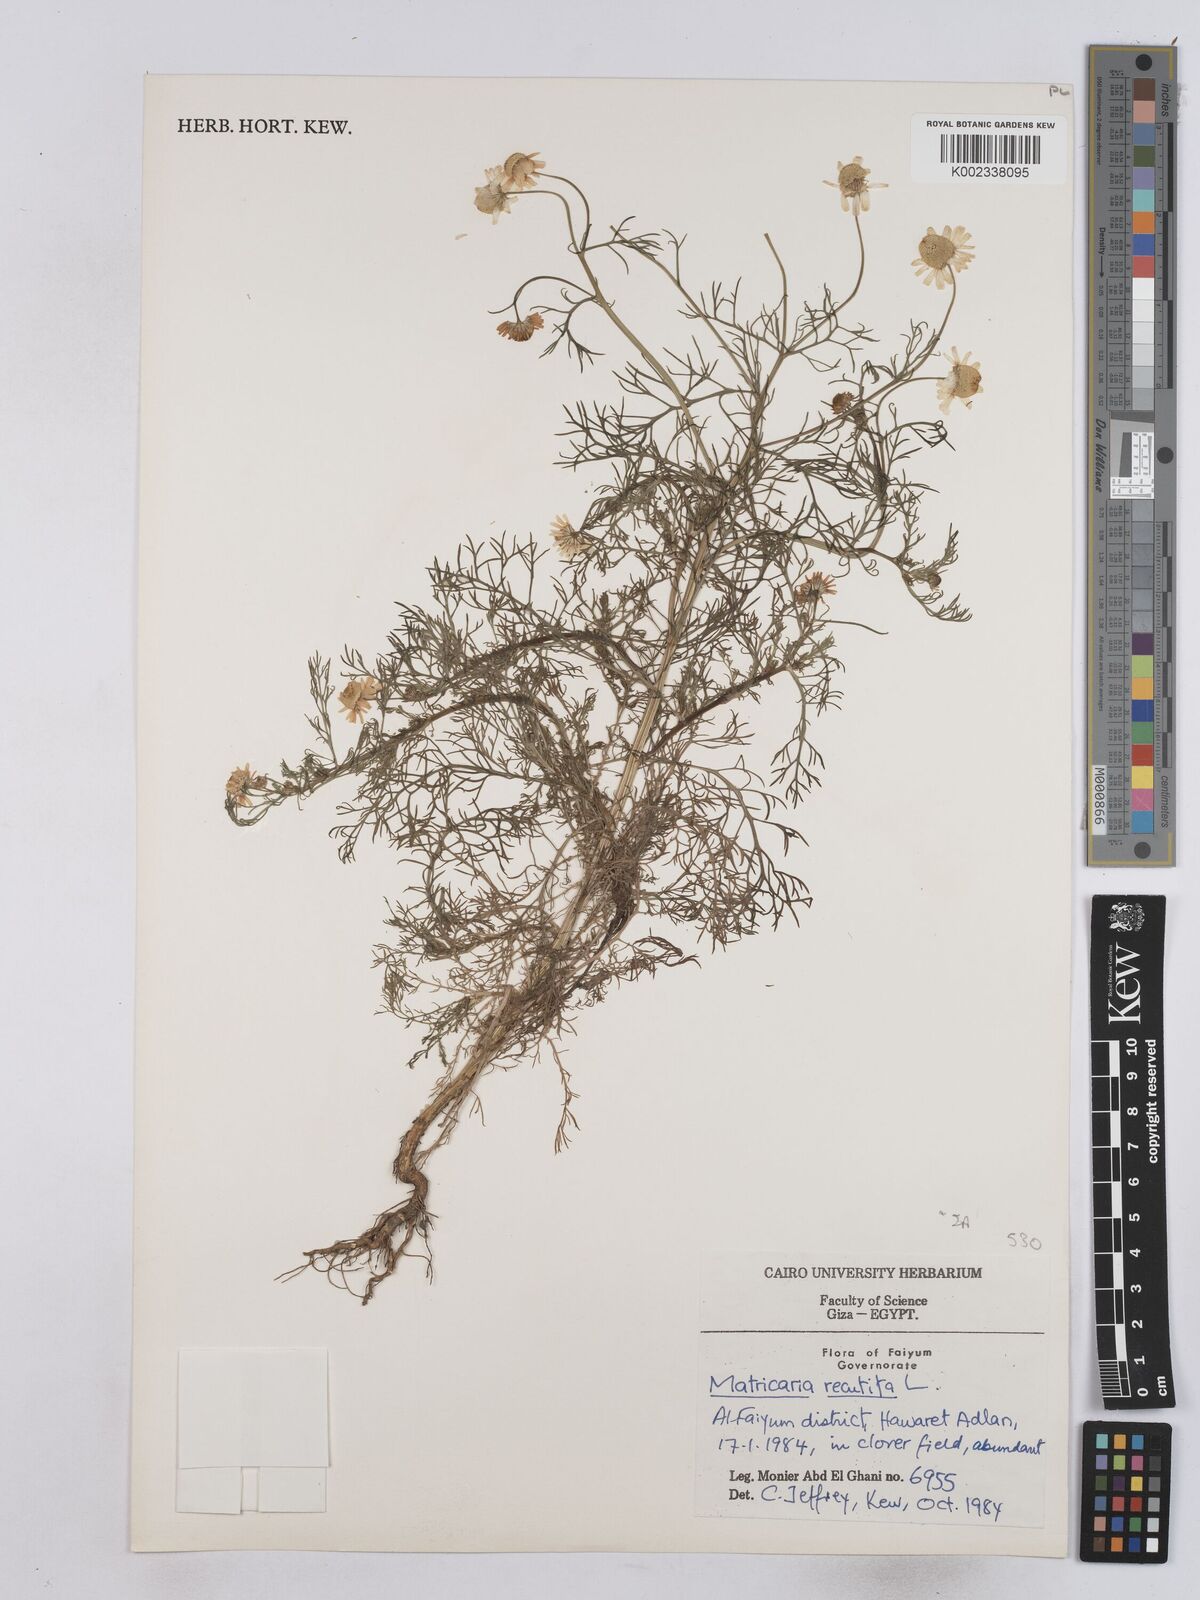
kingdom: Plantae
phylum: Tracheophyta
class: Magnoliopsida
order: Asterales
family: Asteraceae
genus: Matricaria
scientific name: Matricaria chamomilla
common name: Scented mayweed
